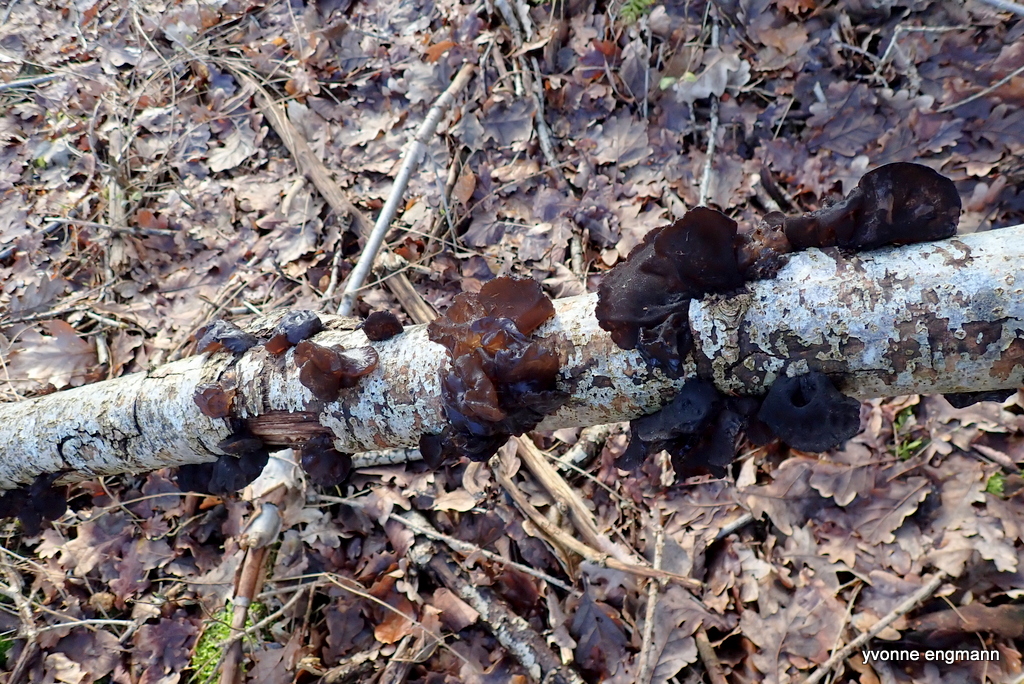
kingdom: Fungi
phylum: Basidiomycota
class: Agaricomycetes
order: Auriculariales
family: Auriculariaceae
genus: Exidia
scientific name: Exidia glandulosa
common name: ege-bævretop
